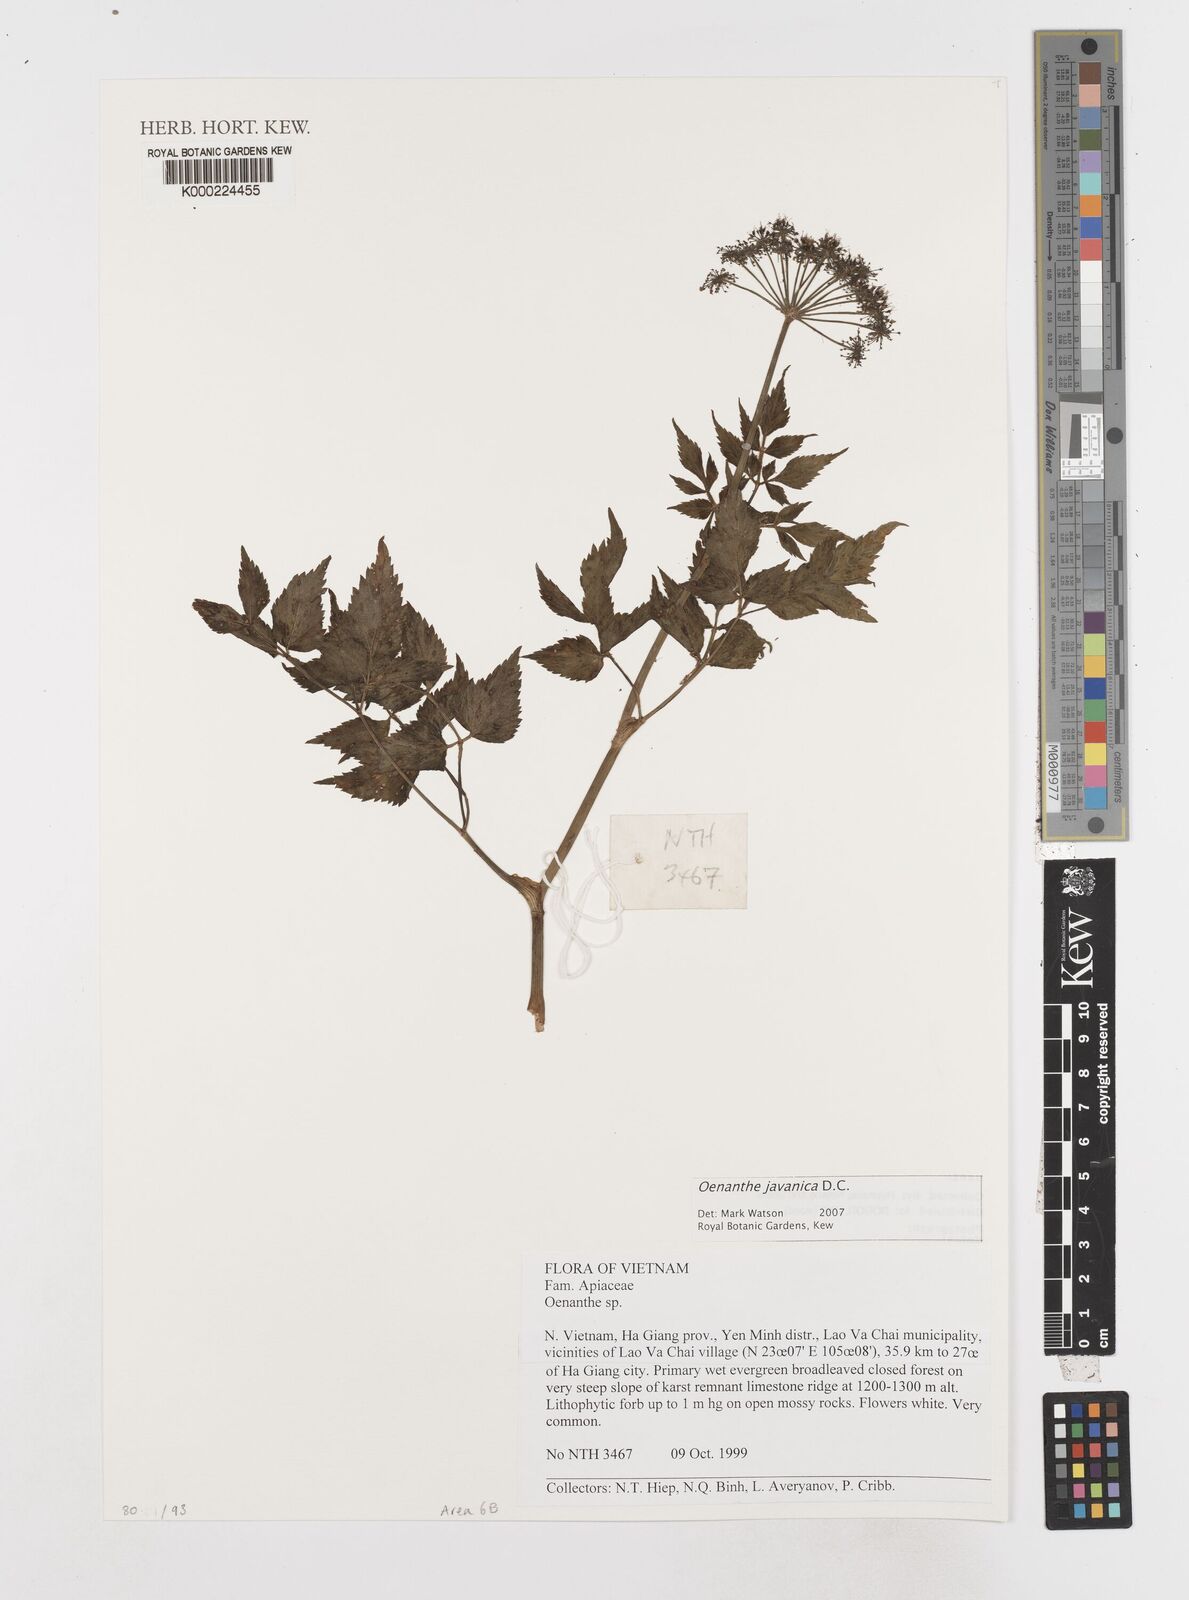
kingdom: Plantae
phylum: Tracheophyta
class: Magnoliopsida
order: Apiales
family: Apiaceae
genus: Oenanthe
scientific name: Oenanthe javanica
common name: Java water-dropwort
